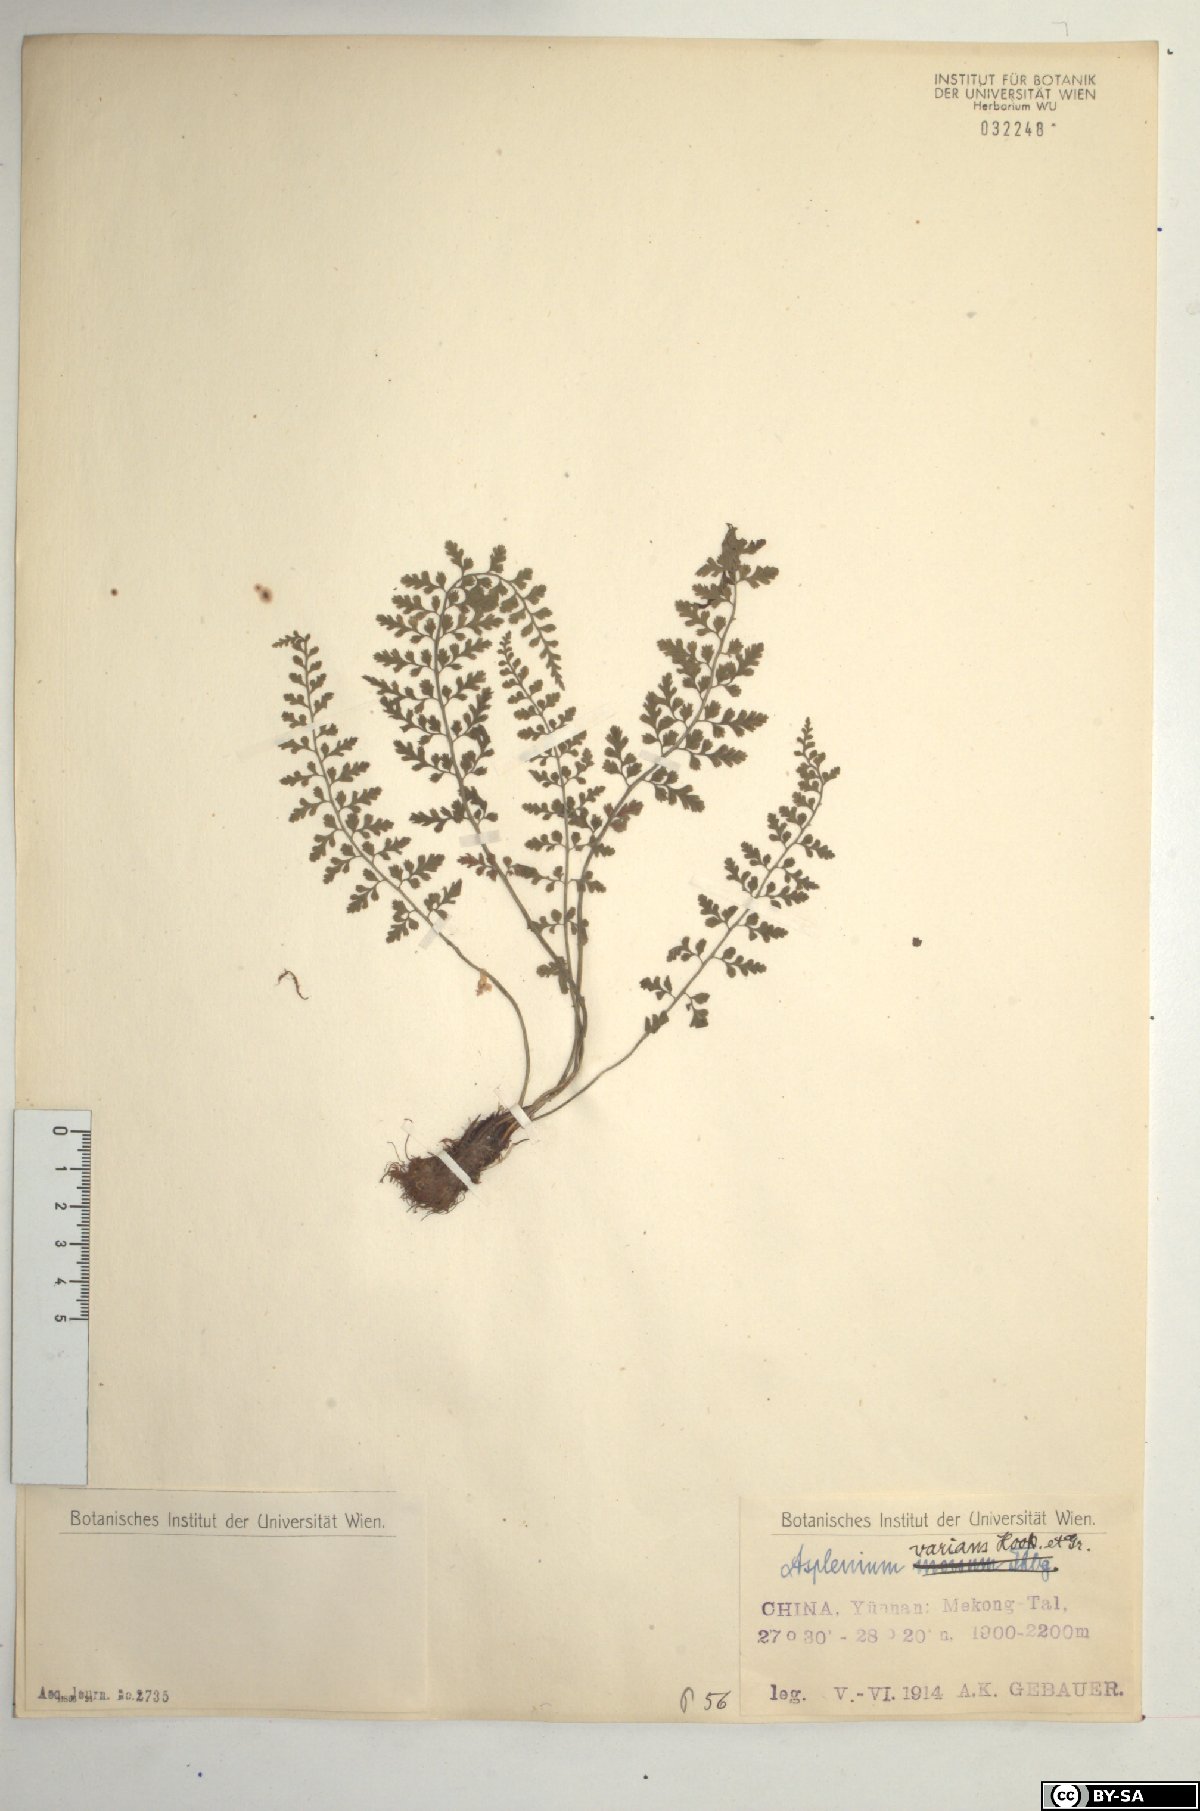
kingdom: Plantae
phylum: Tracheophyta
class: Polypodiopsida
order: Polypodiales
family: Aspleniaceae
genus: Asplenium
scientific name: Asplenium laciniatum
